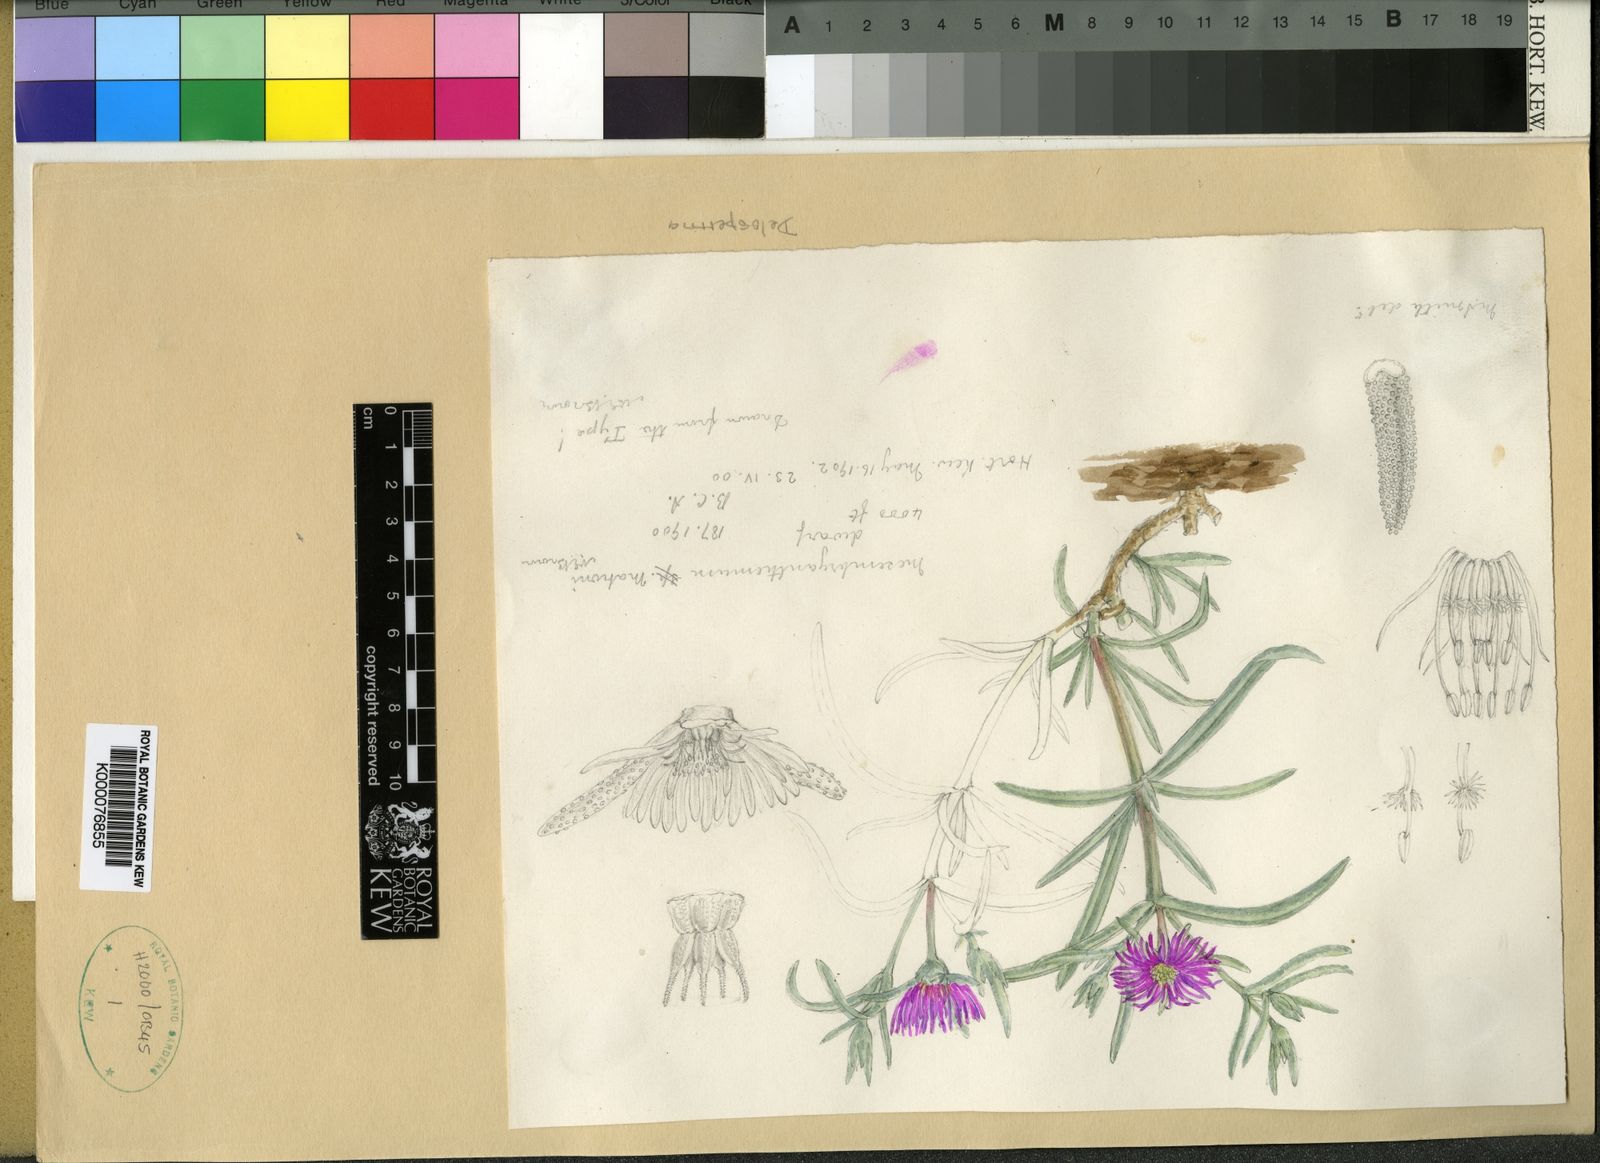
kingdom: Plantae
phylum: Tracheophyta
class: Magnoliopsida
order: Caryophyllales
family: Aizoaceae
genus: Delosperma
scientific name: Delosperma mahonii
